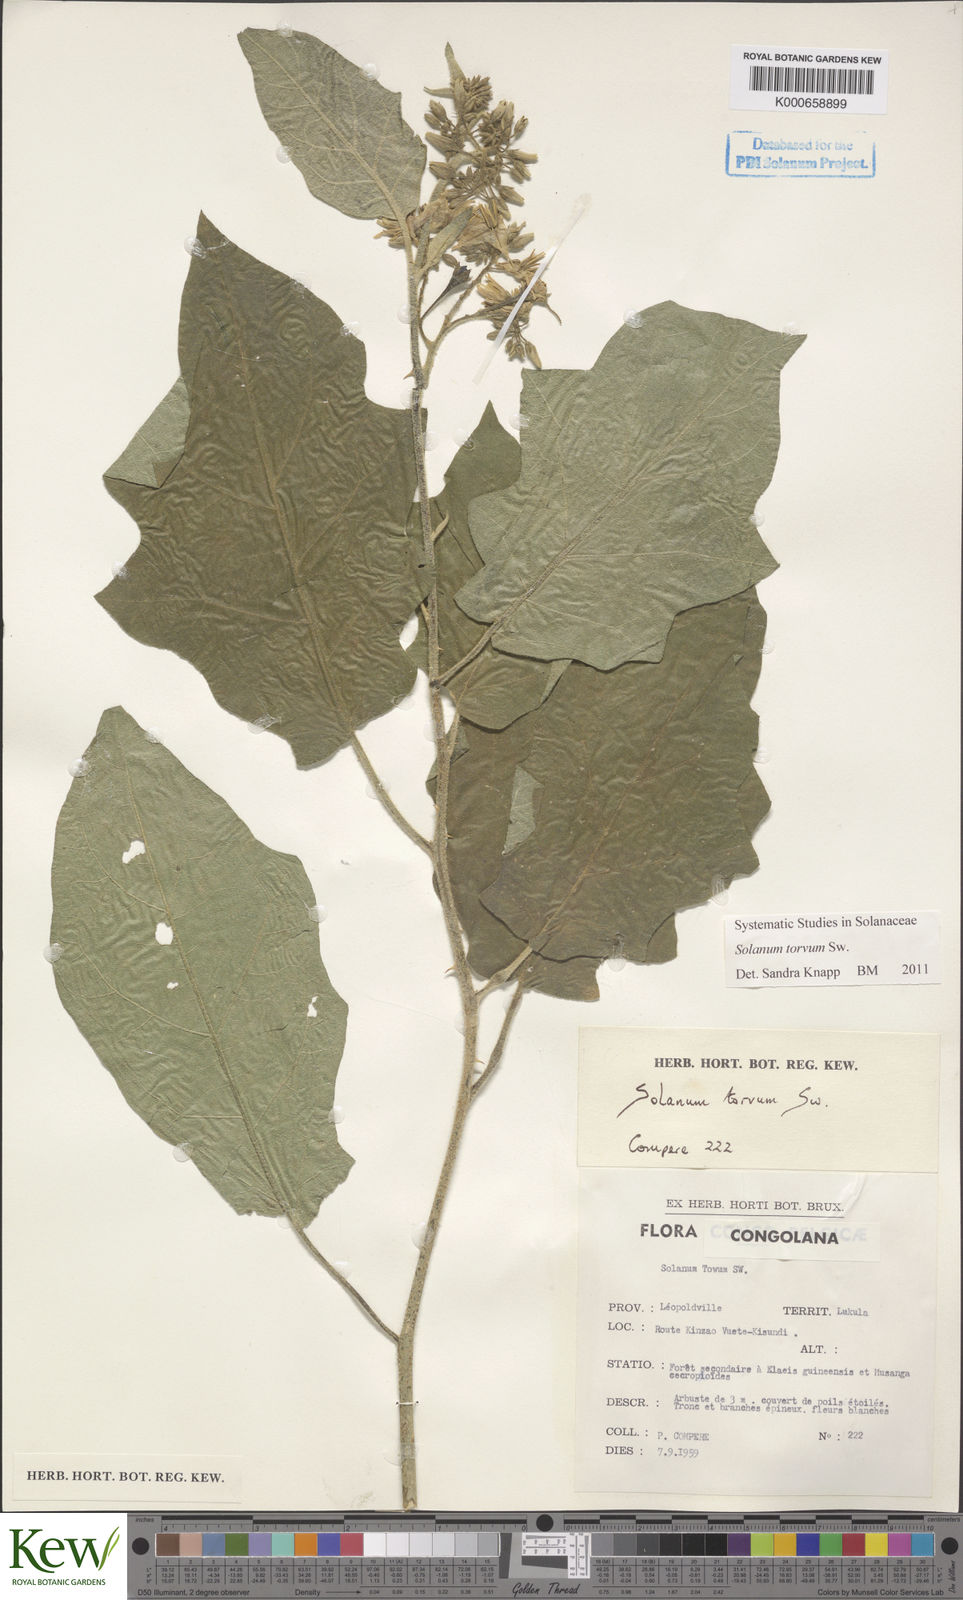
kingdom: Plantae
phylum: Tracheophyta
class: Magnoliopsida
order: Solanales
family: Solanaceae
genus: Solanum
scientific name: Solanum torvum
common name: Turkey berry
